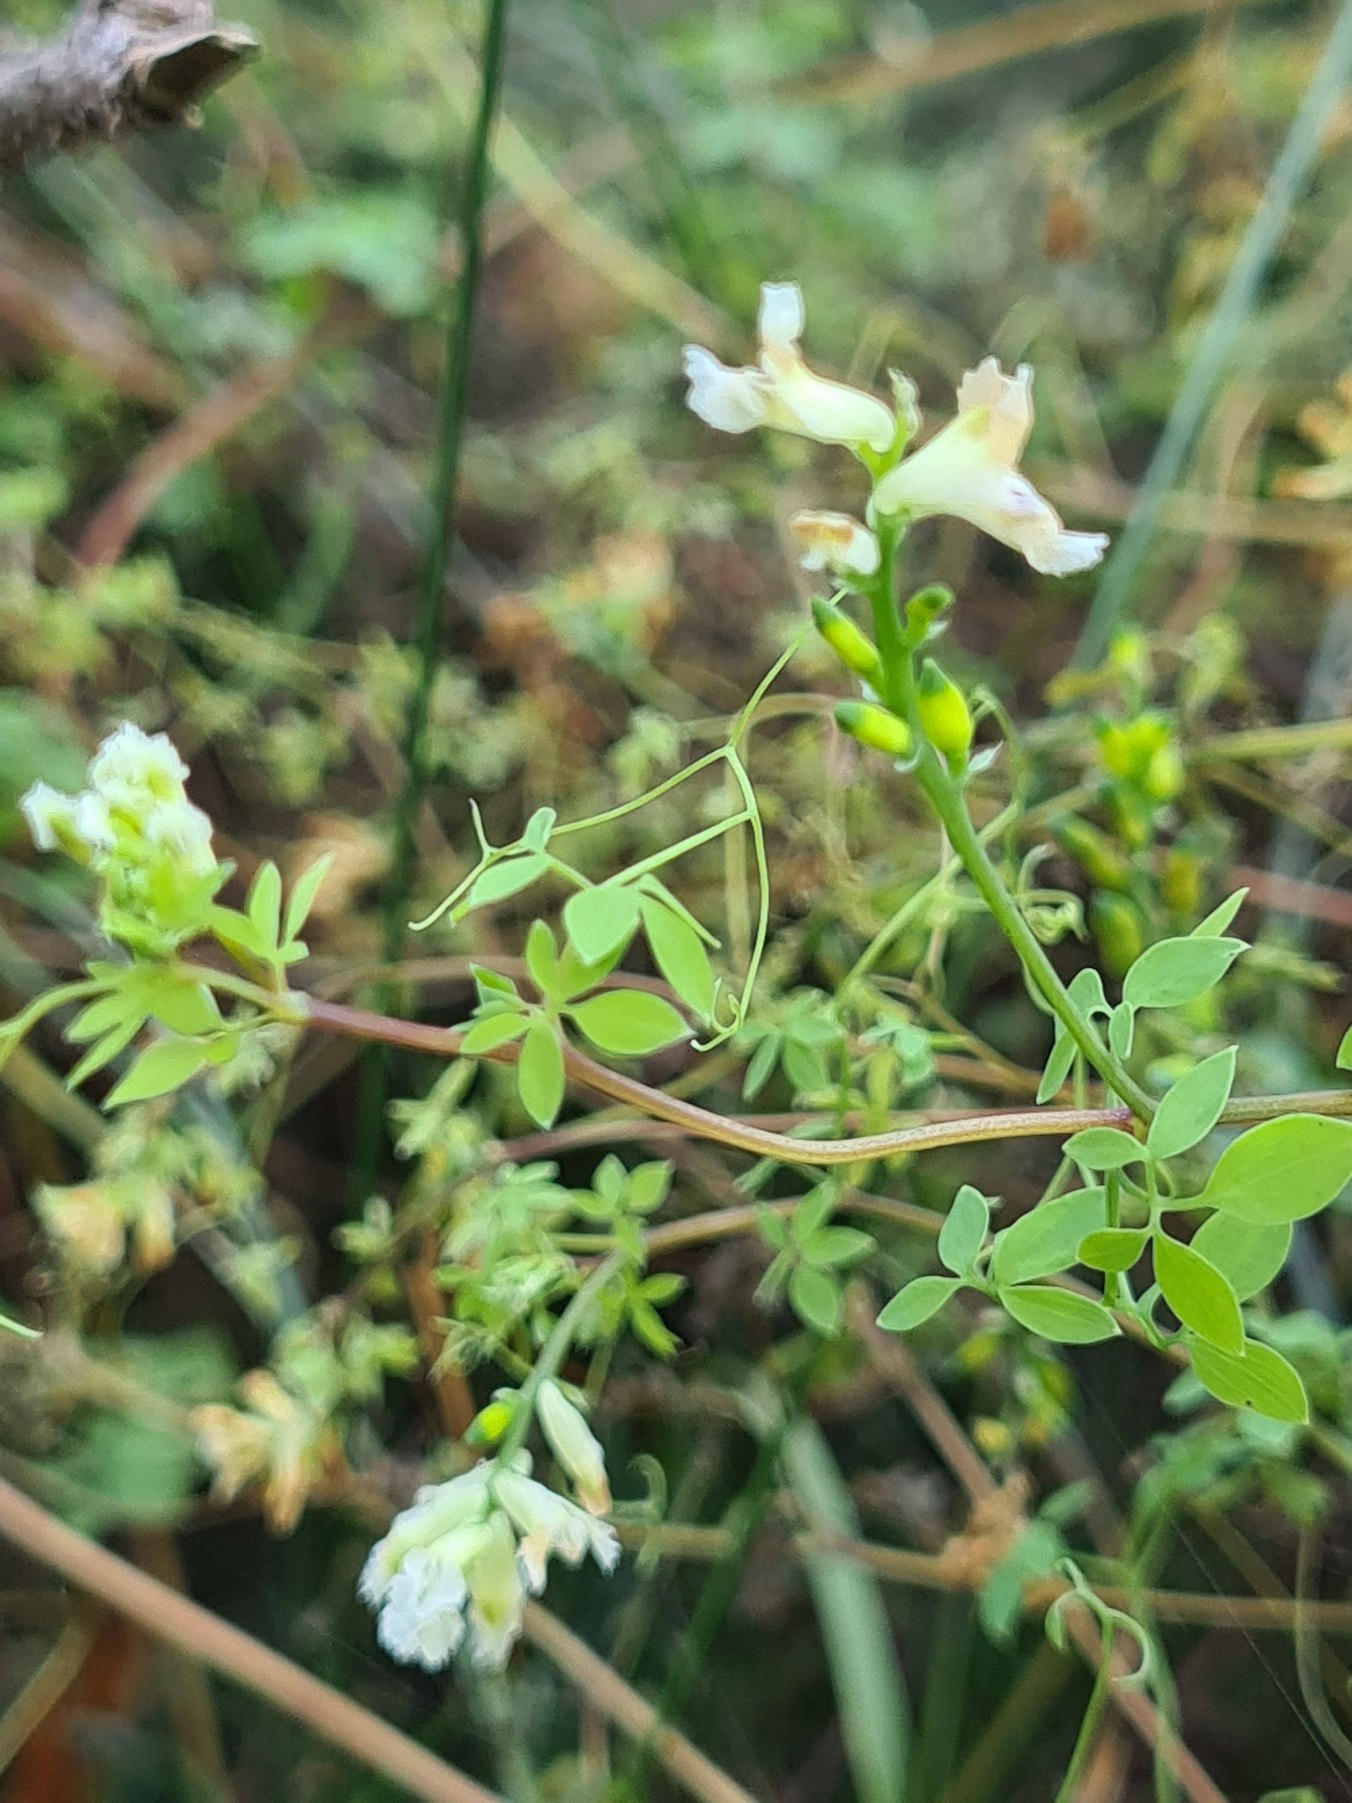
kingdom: Plantae
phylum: Tracheophyta
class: Magnoliopsida
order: Ranunculales
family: Papaveraceae
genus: Ceratocapnos
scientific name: Ceratocapnos claviculata
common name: Klatrende lærkespore
